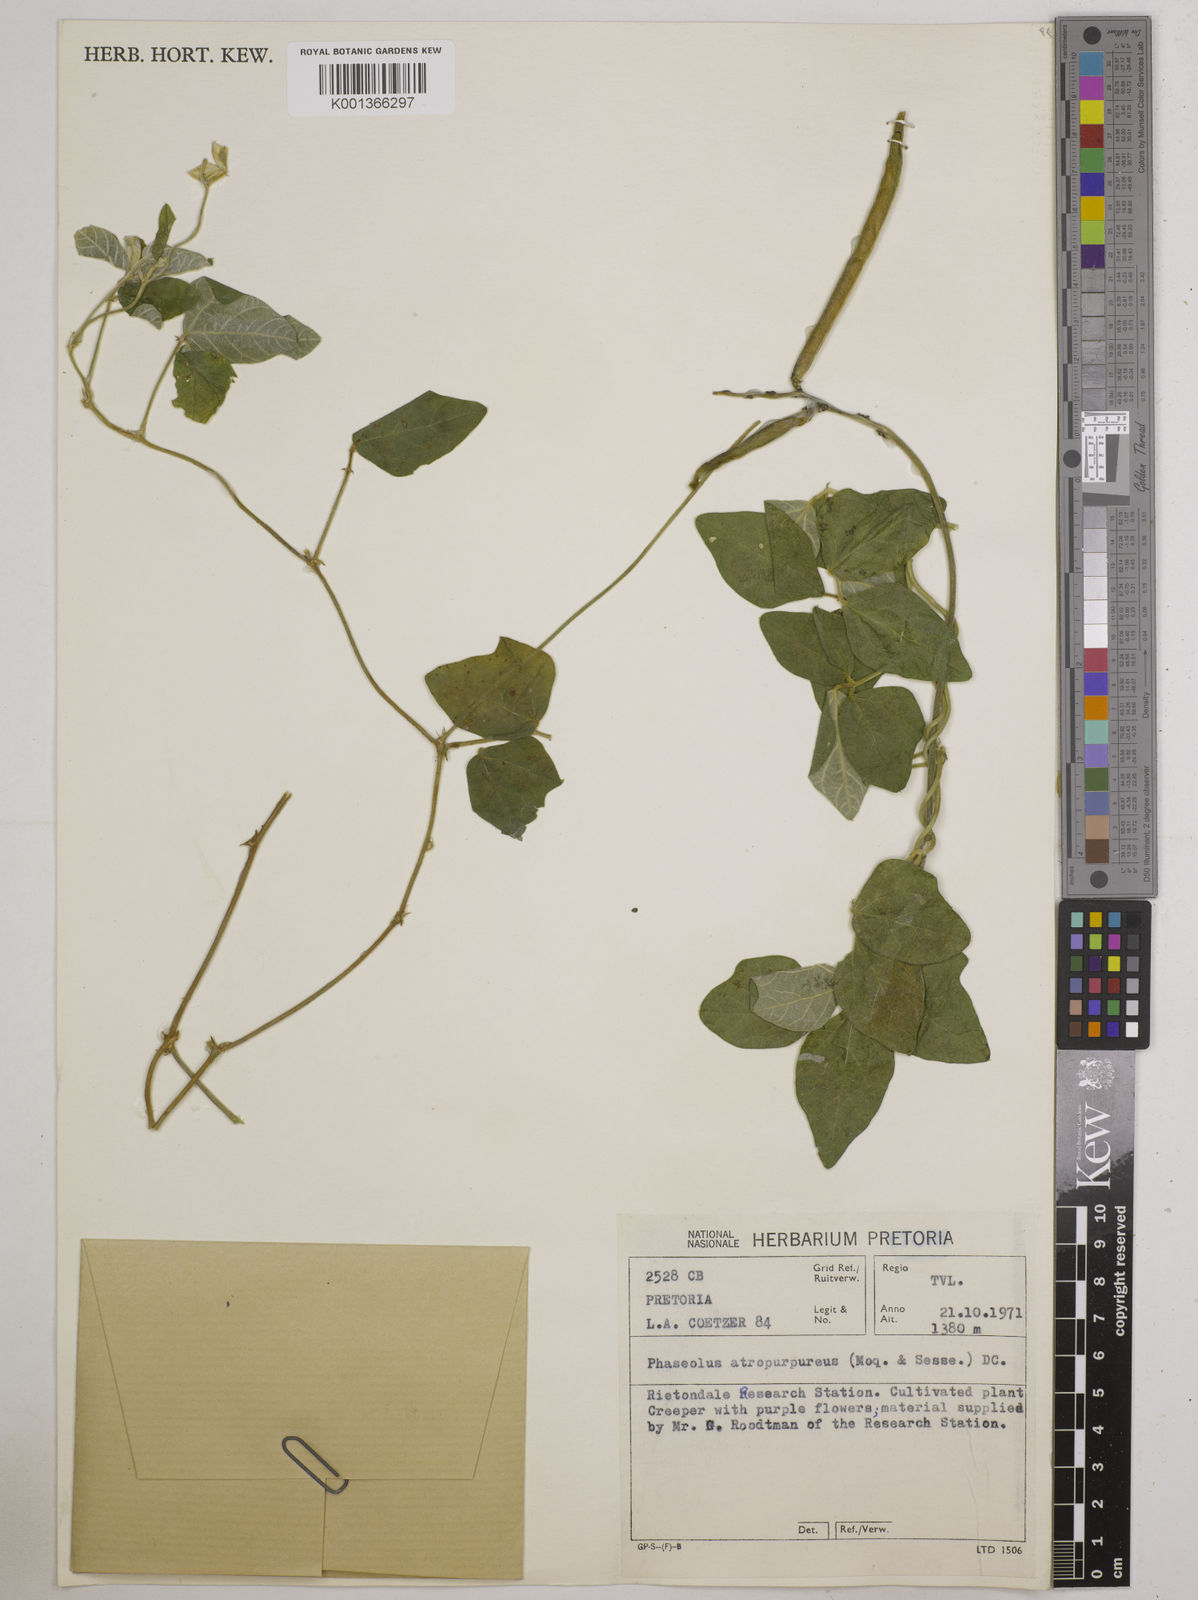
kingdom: Plantae
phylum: Tracheophyta
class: Magnoliopsida
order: Fabales
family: Fabaceae
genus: Macroptilium
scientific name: Macroptilium atropurpureum
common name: Purple bushbean
